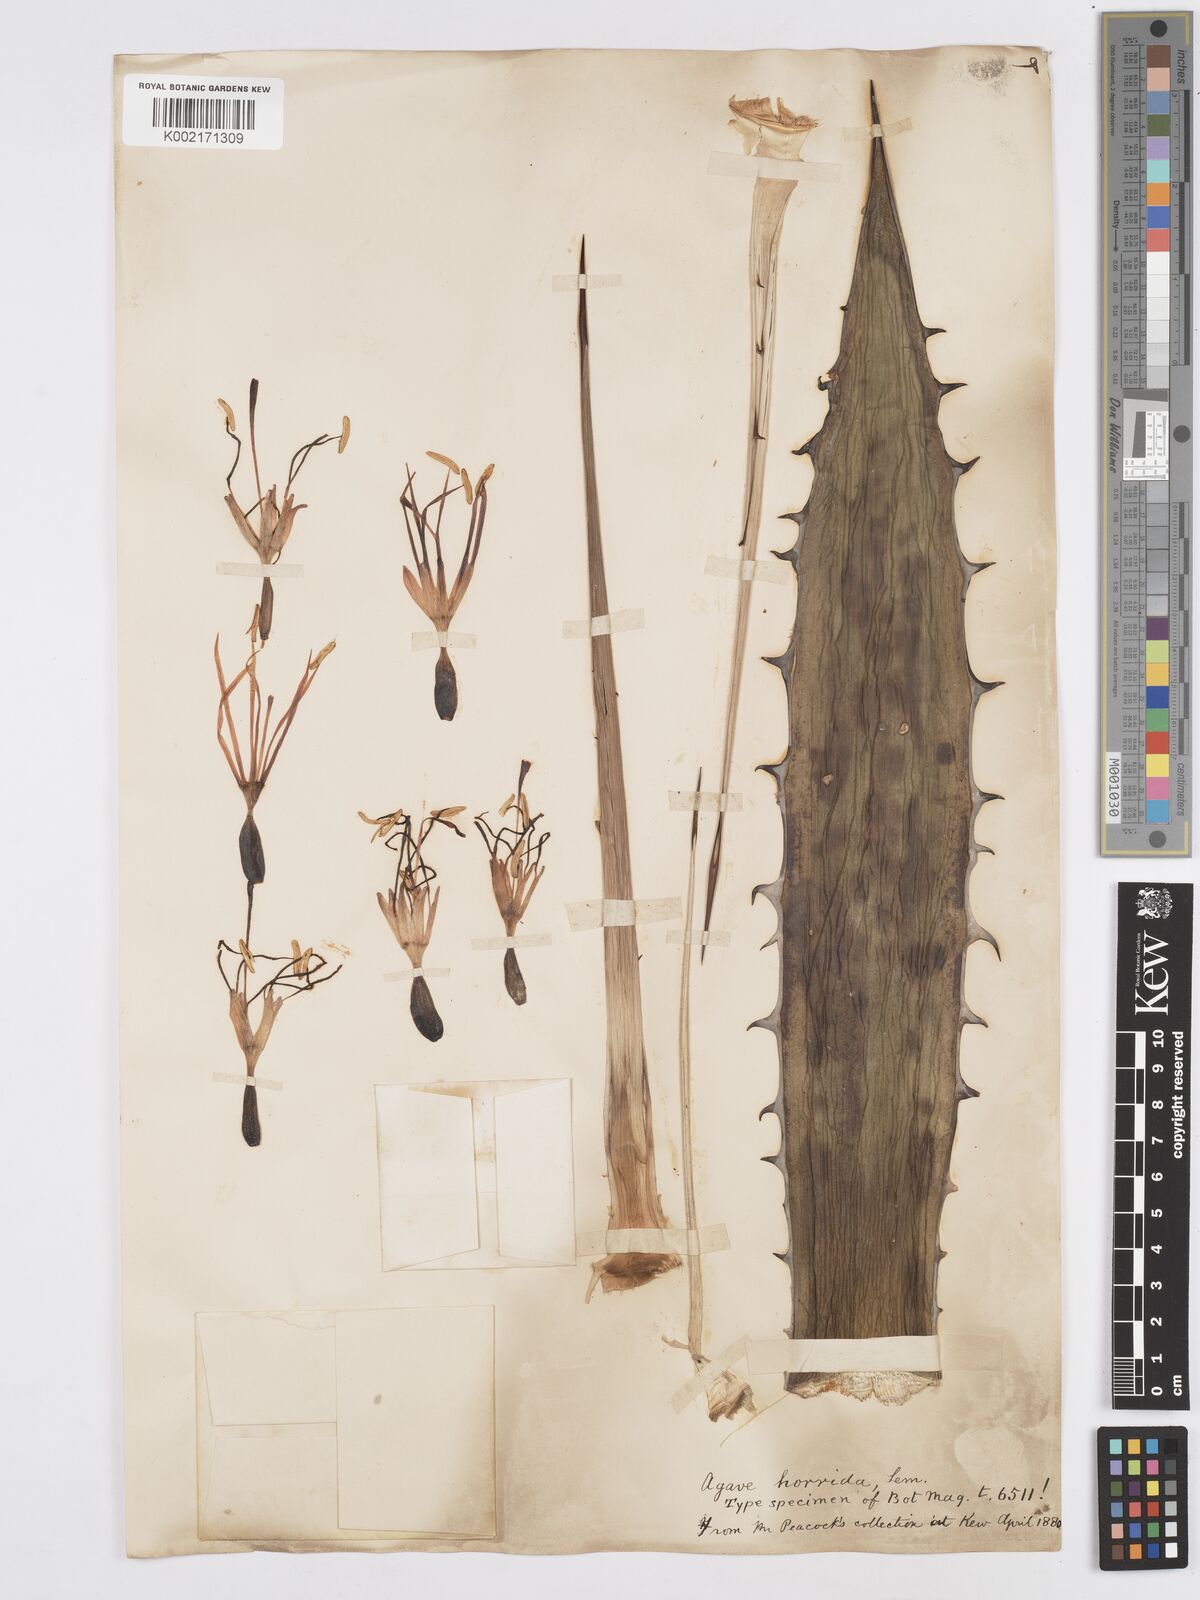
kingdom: Plantae
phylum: Tracheophyta
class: Liliopsida
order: Asparagales
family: Asparagaceae
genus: Agave
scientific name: Agave horrida
